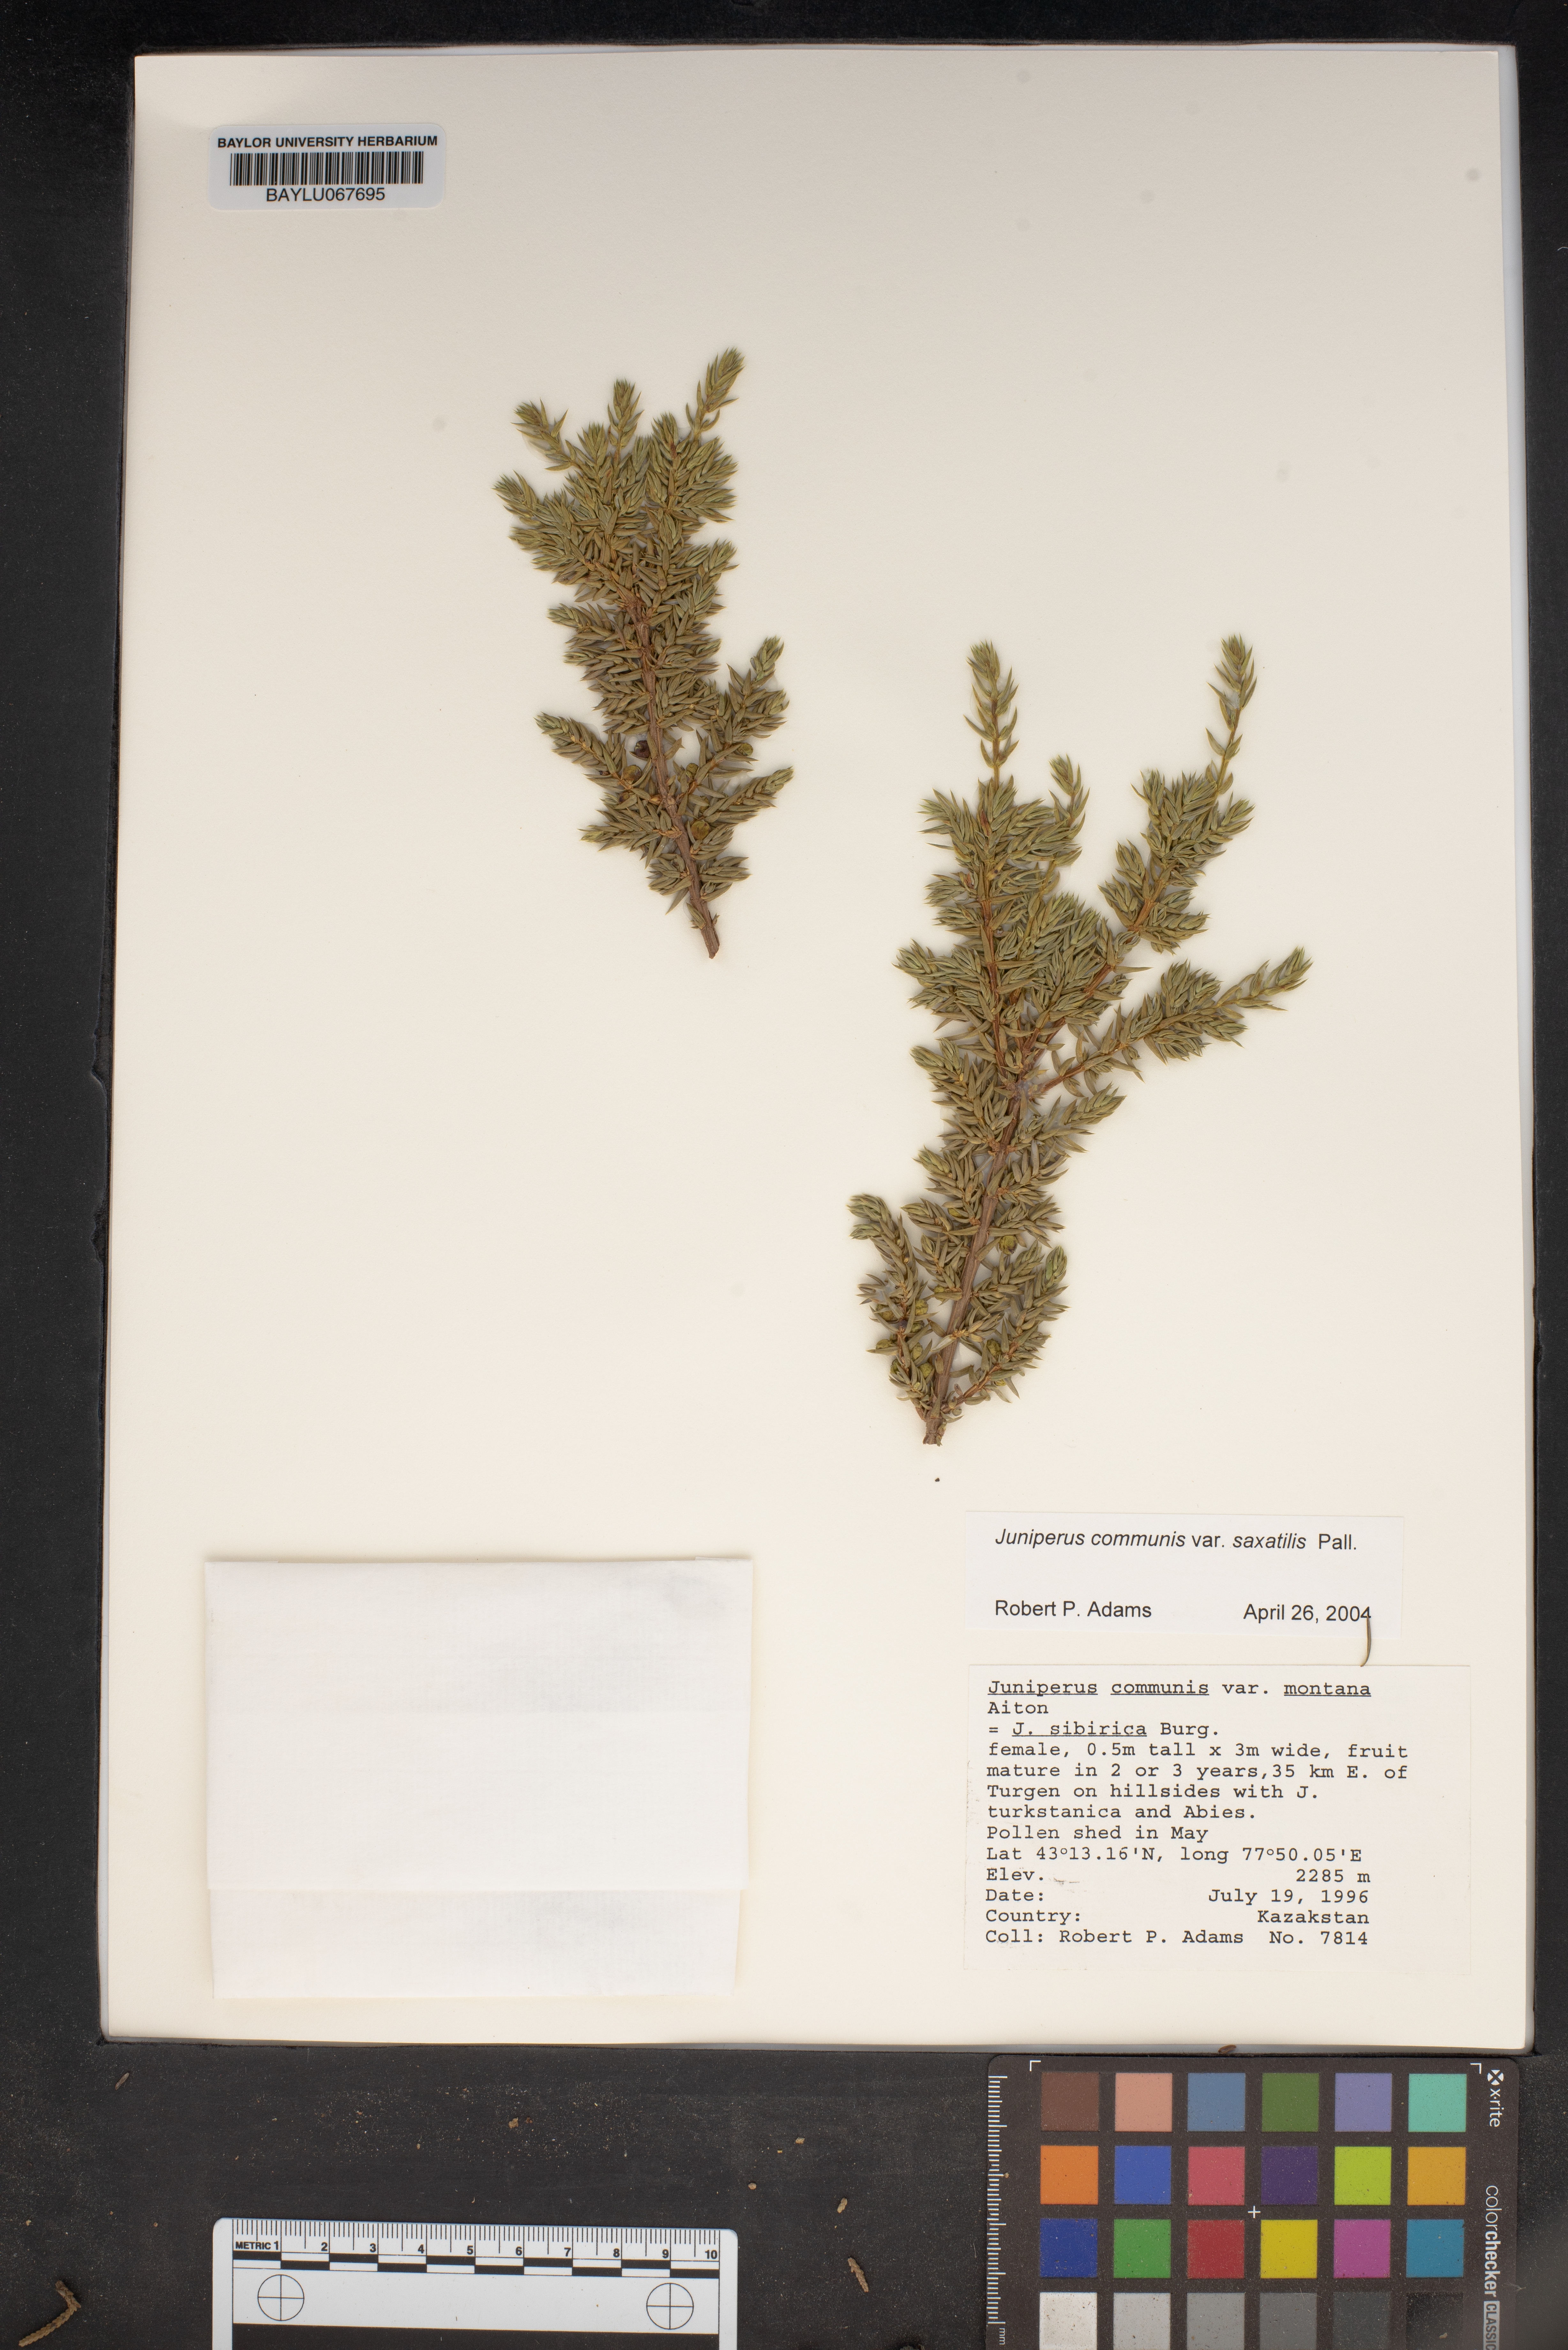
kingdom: Plantae
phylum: Tracheophyta
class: Pinopsida
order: Pinales
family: Cupressaceae
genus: Juniperus
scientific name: Juniperus communis
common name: Common juniper
